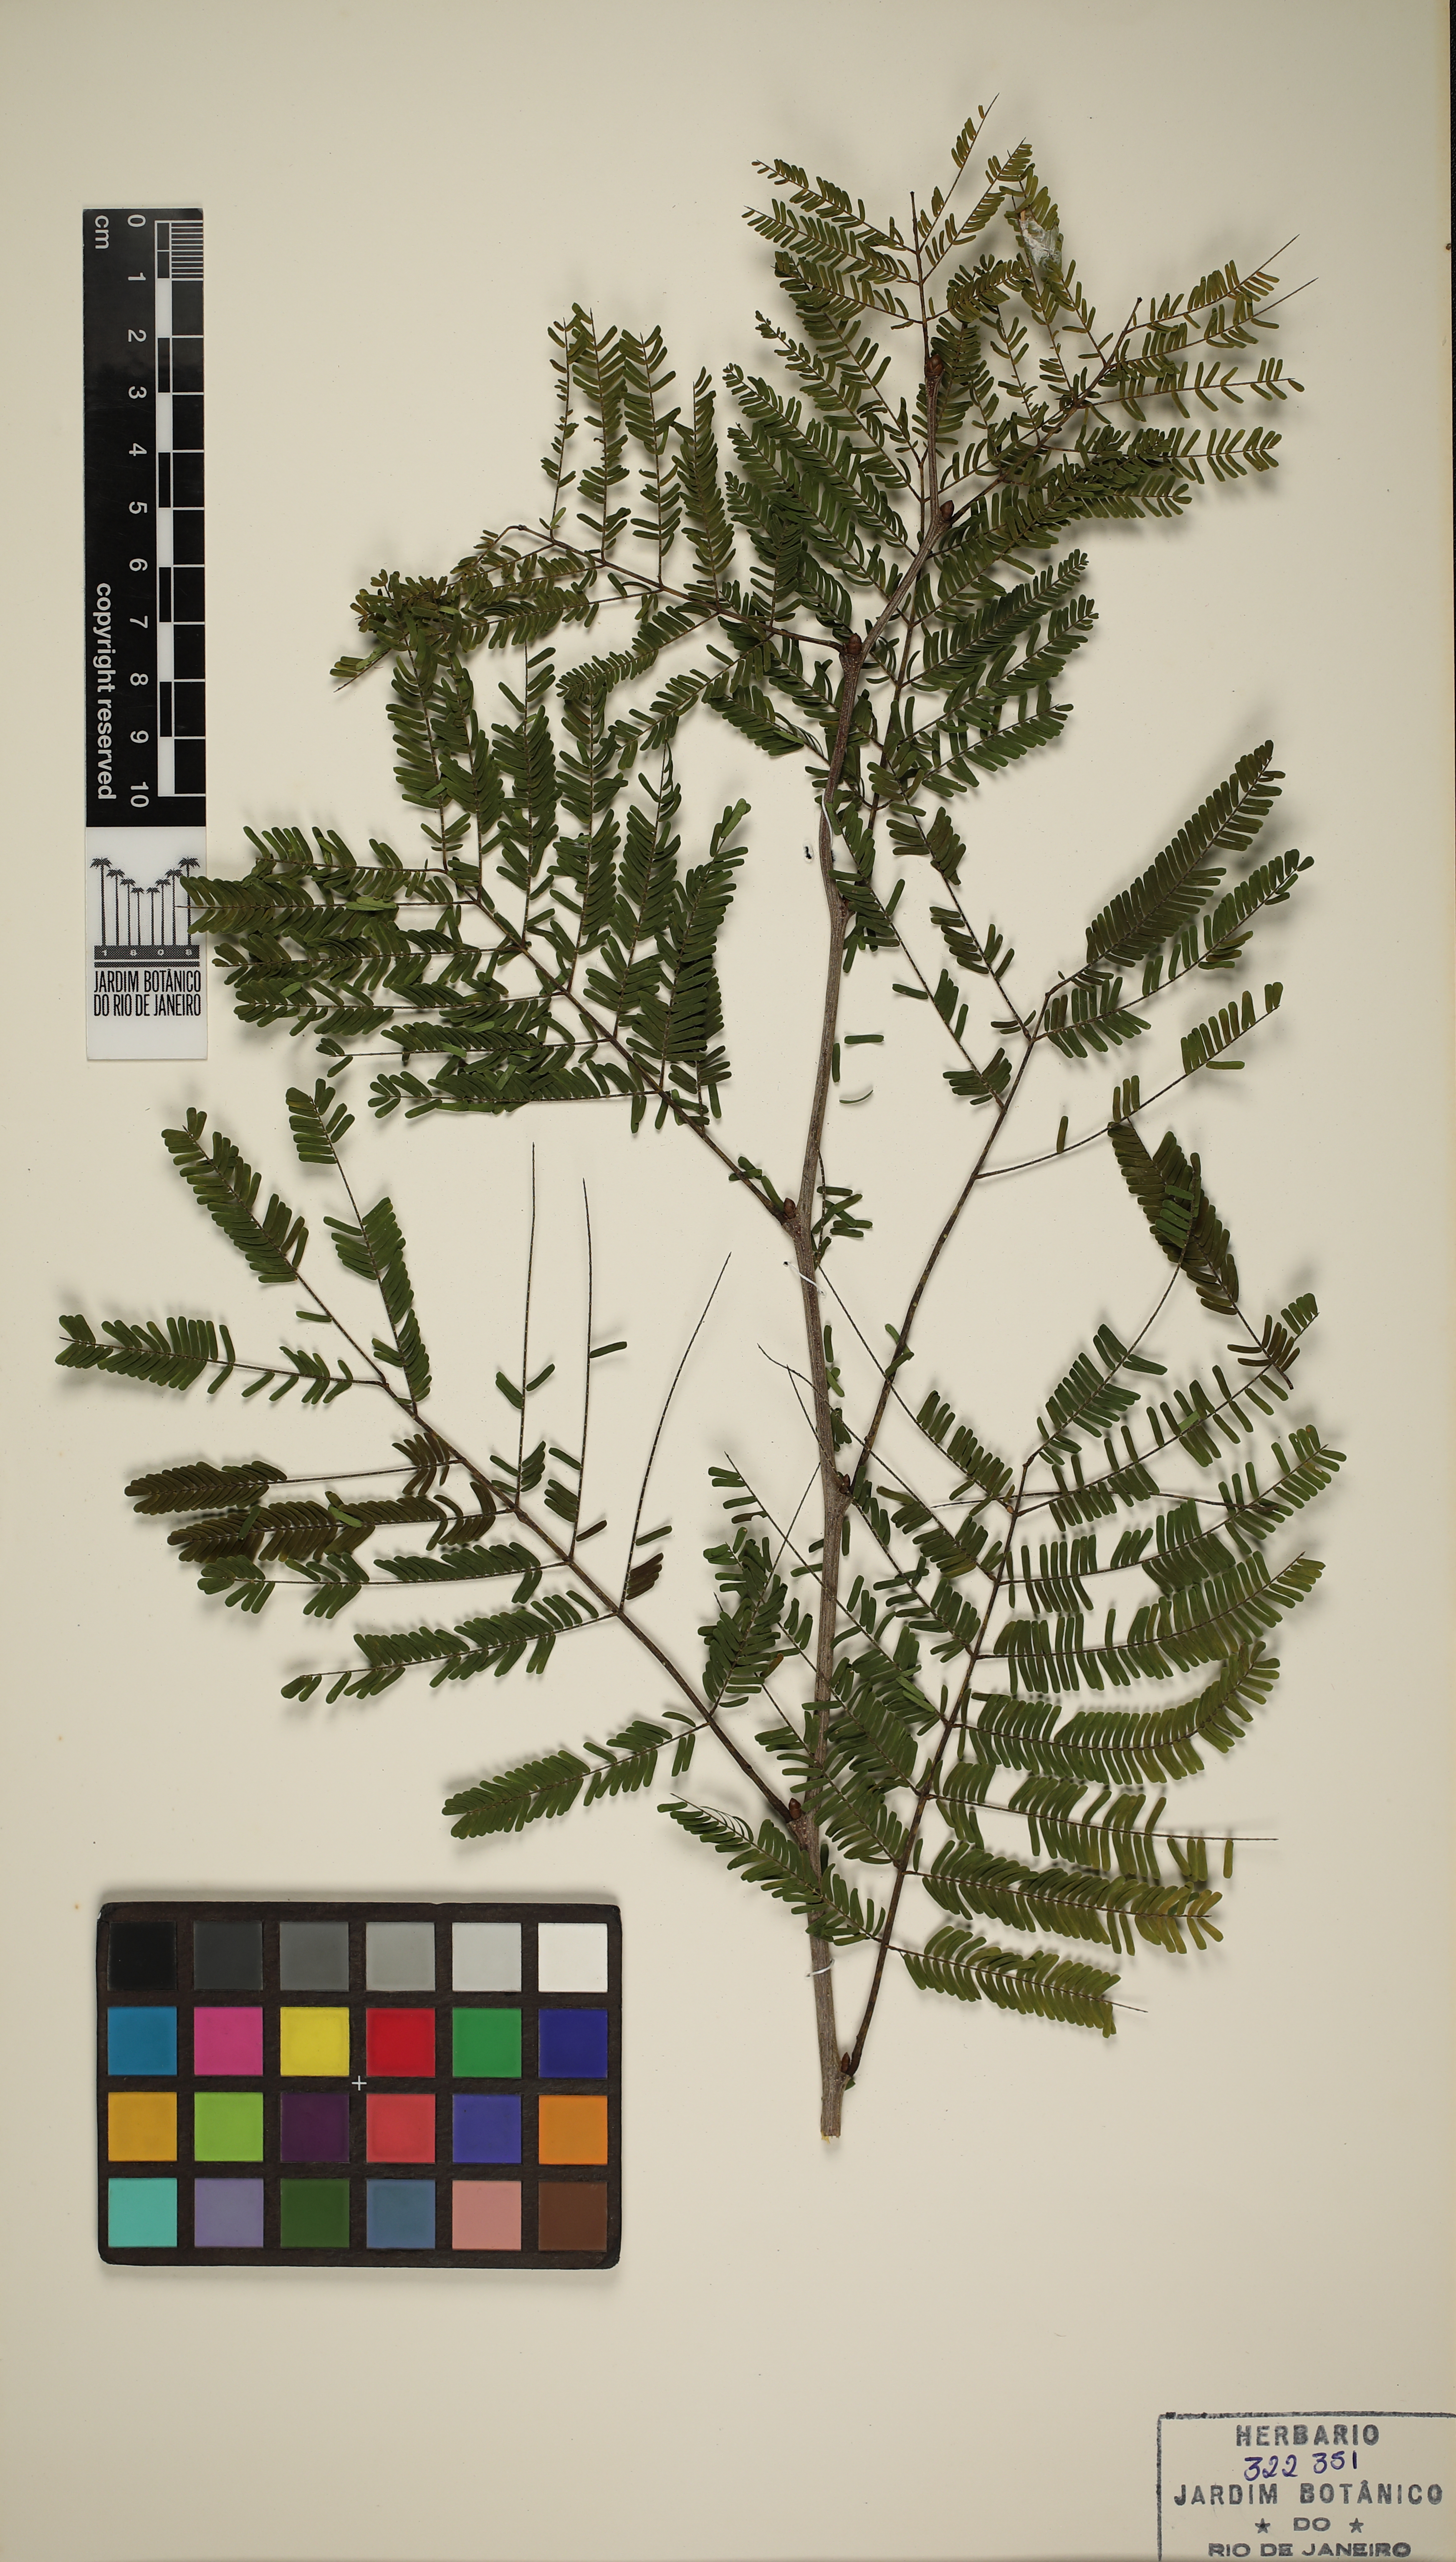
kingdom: Plantae
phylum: Tracheophyta
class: Magnoliopsida
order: Fabales
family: Fabaceae
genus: Chloroleucon
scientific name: Chloroleucon dumosum
